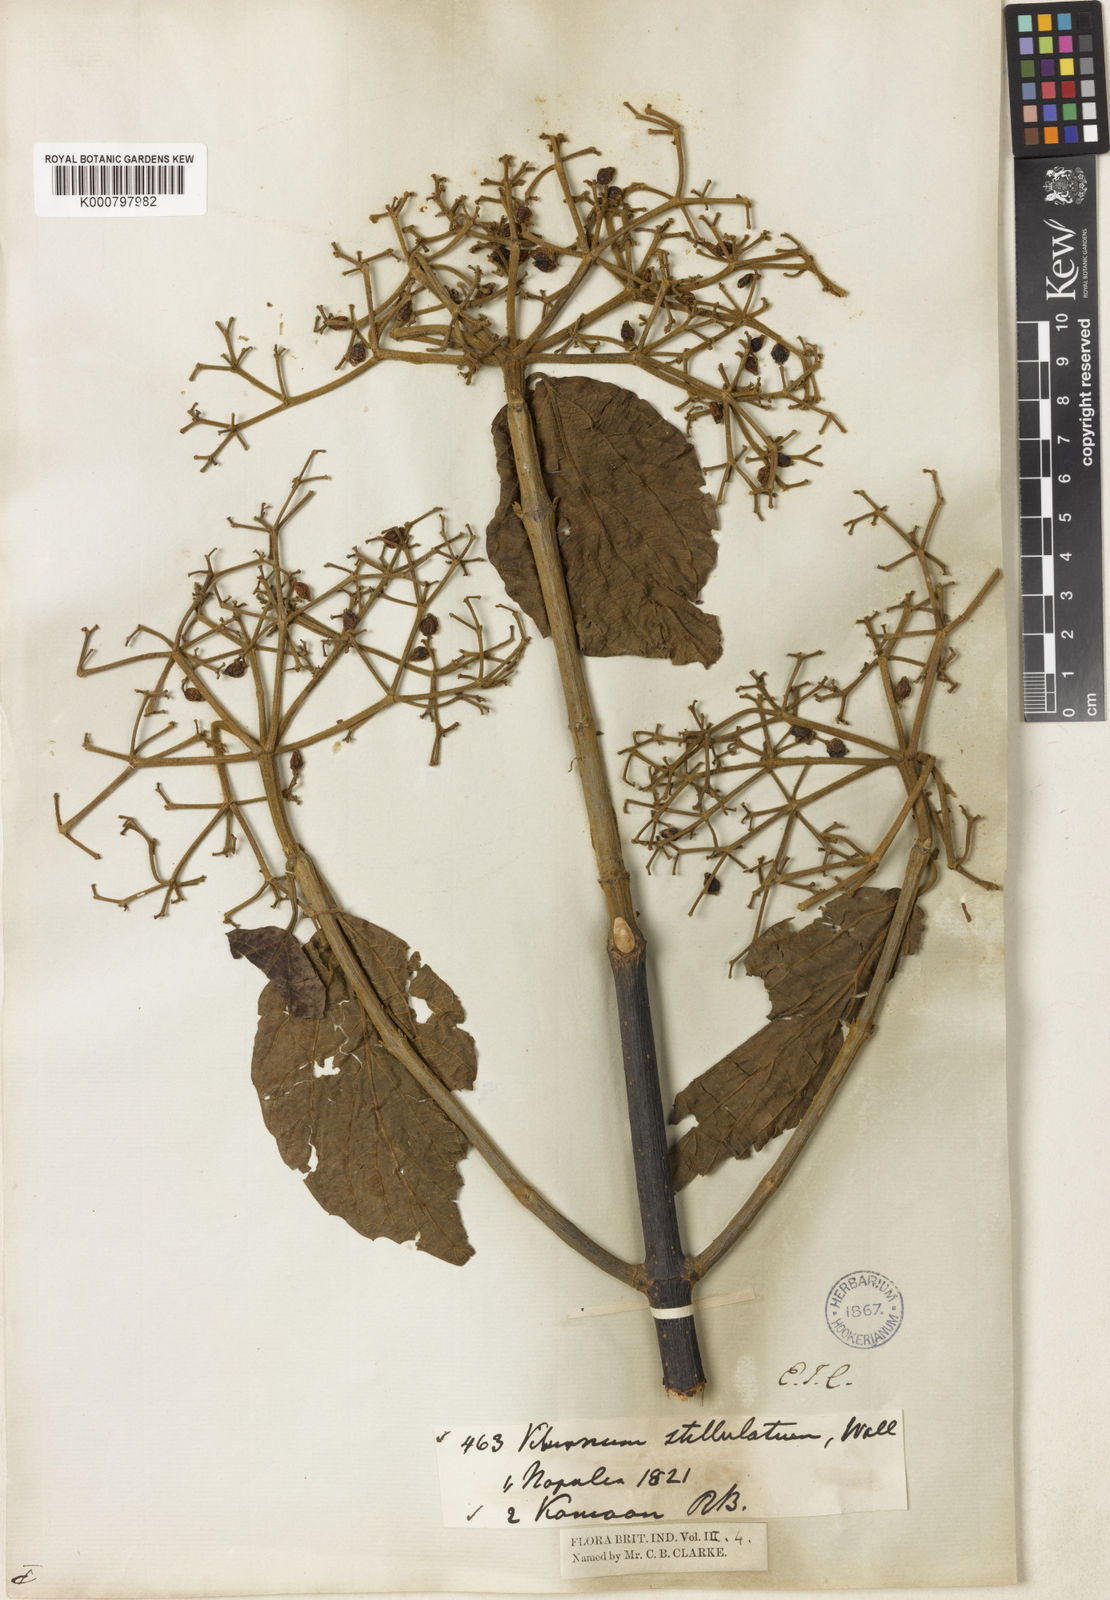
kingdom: Plantae
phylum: Tracheophyta
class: Magnoliopsida
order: Dipsacales
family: Viburnaceae
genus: Viburnum
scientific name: Viburnum mullaha
